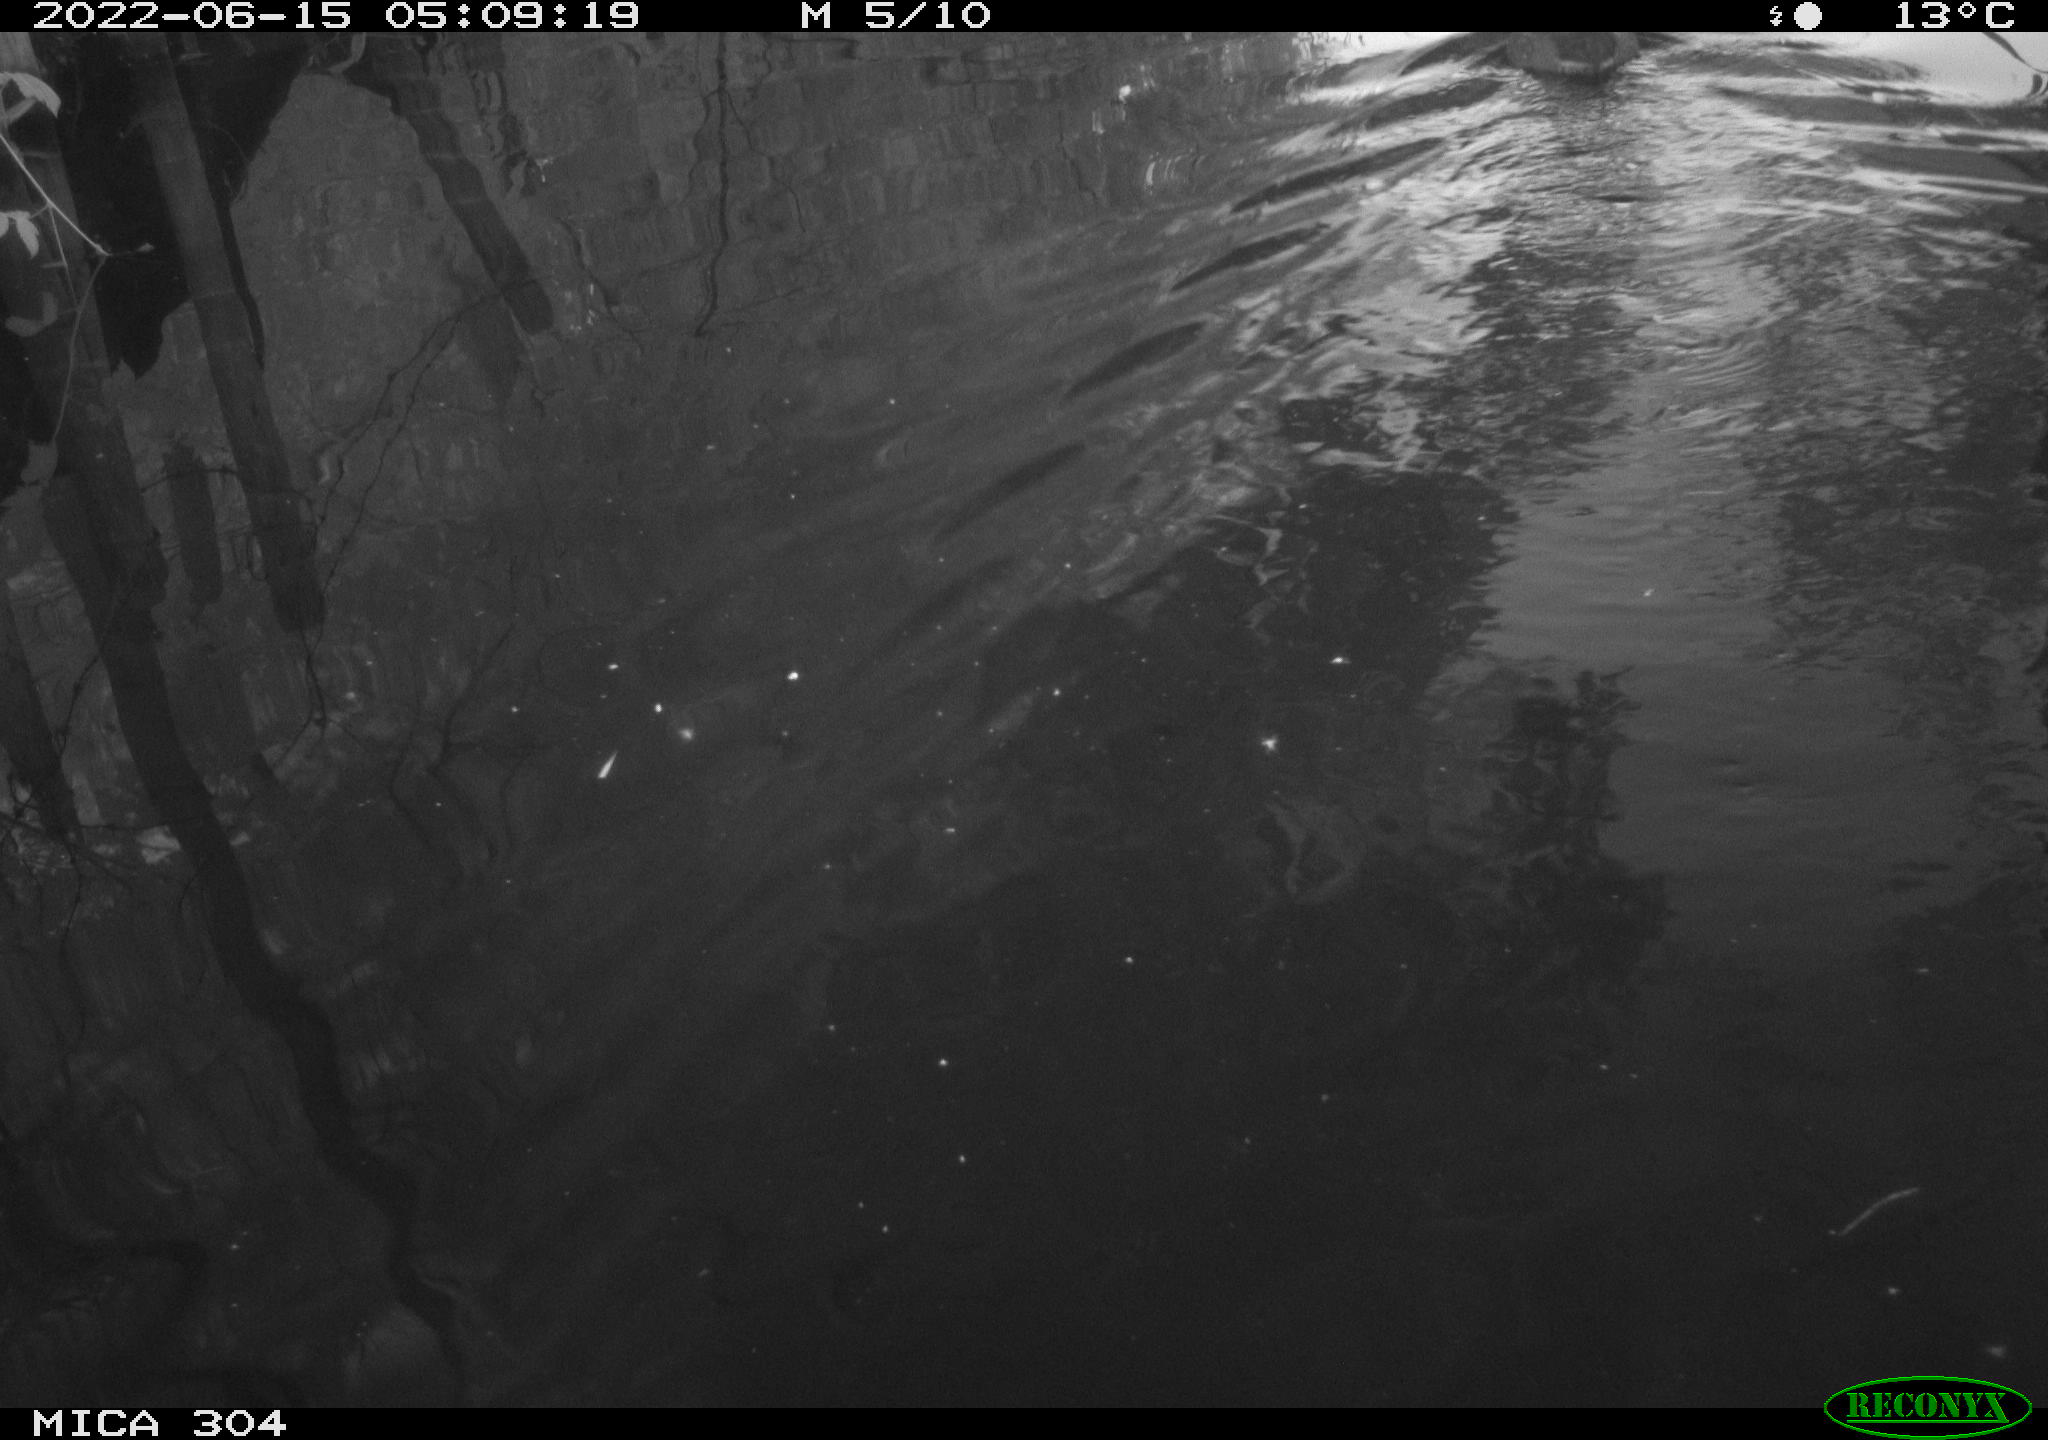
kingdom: Animalia
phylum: Chordata
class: Aves
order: Anseriformes
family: Anatidae
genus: Anas
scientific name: Anas platyrhynchos
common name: Mallard
